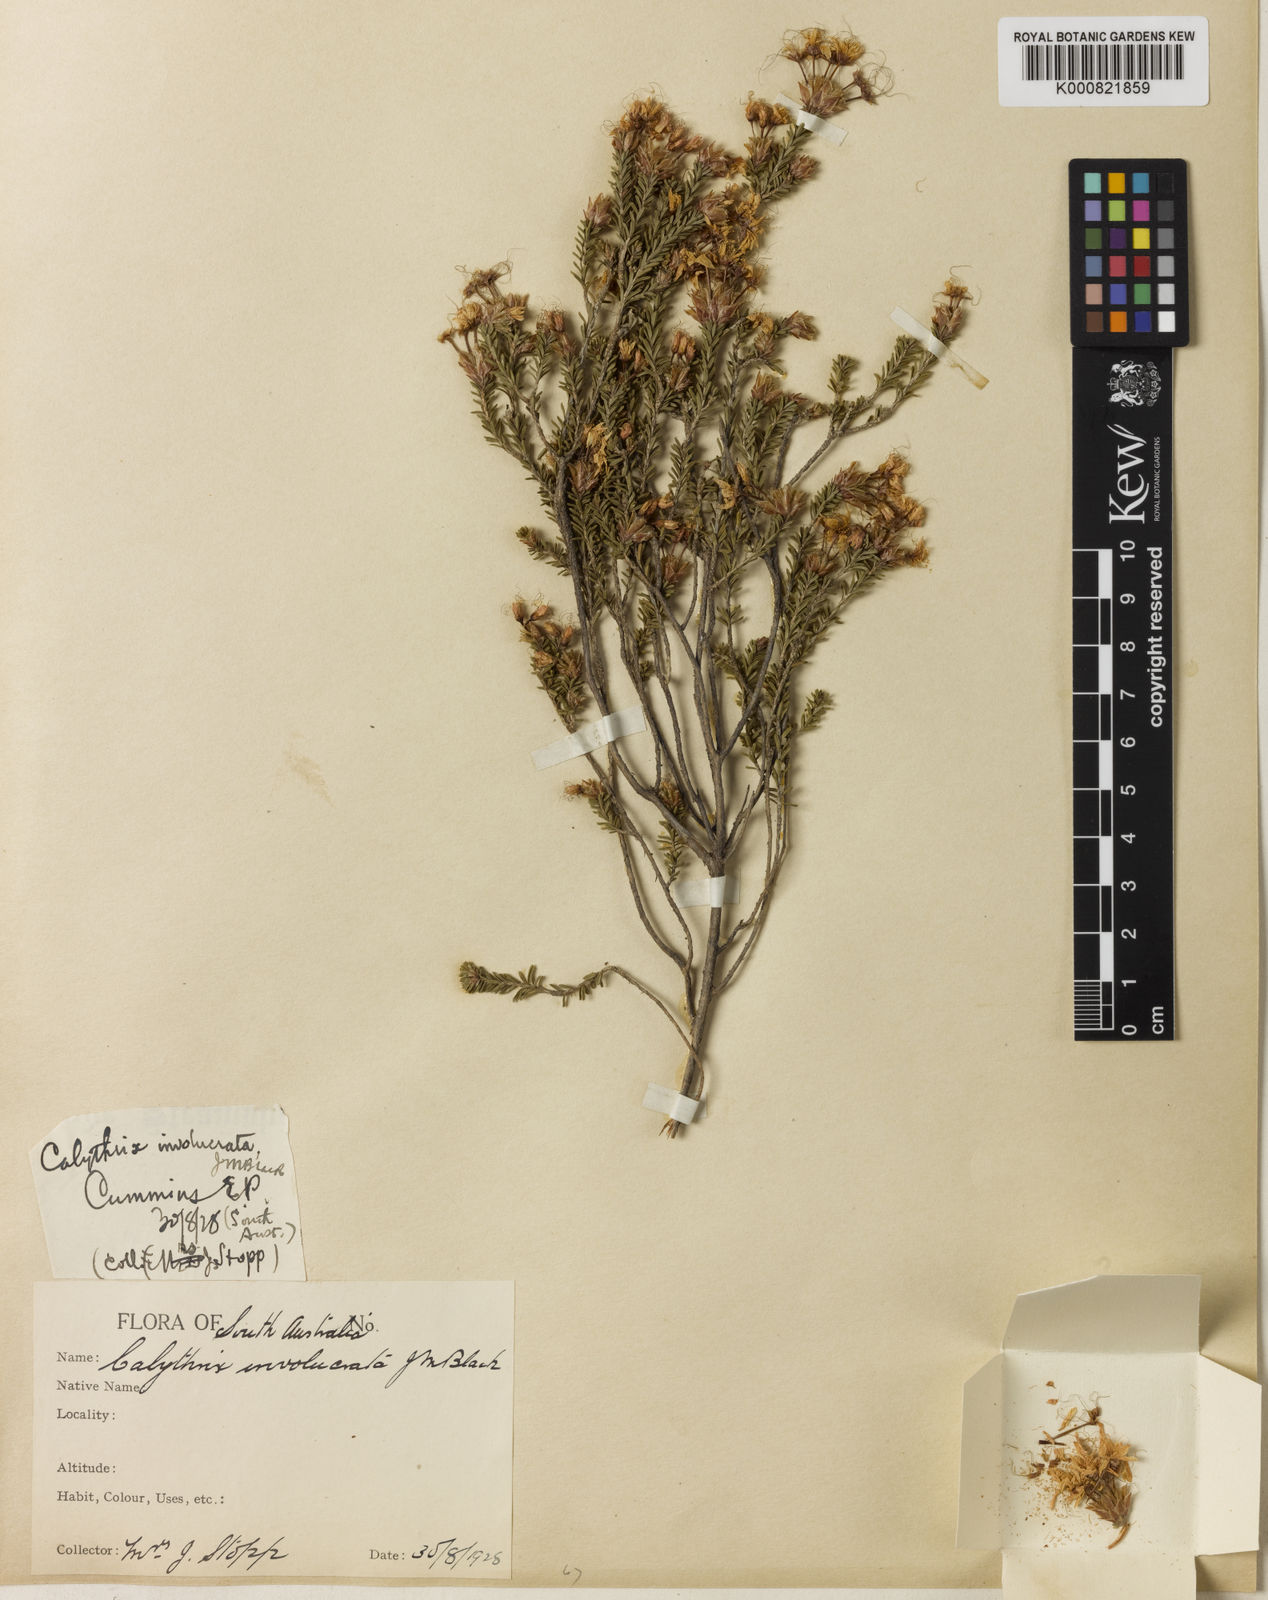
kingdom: Plantae
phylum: Tracheophyta
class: Magnoliopsida
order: Myrtales
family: Myrtaceae
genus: Calytrix
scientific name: Calytrix involucrata
